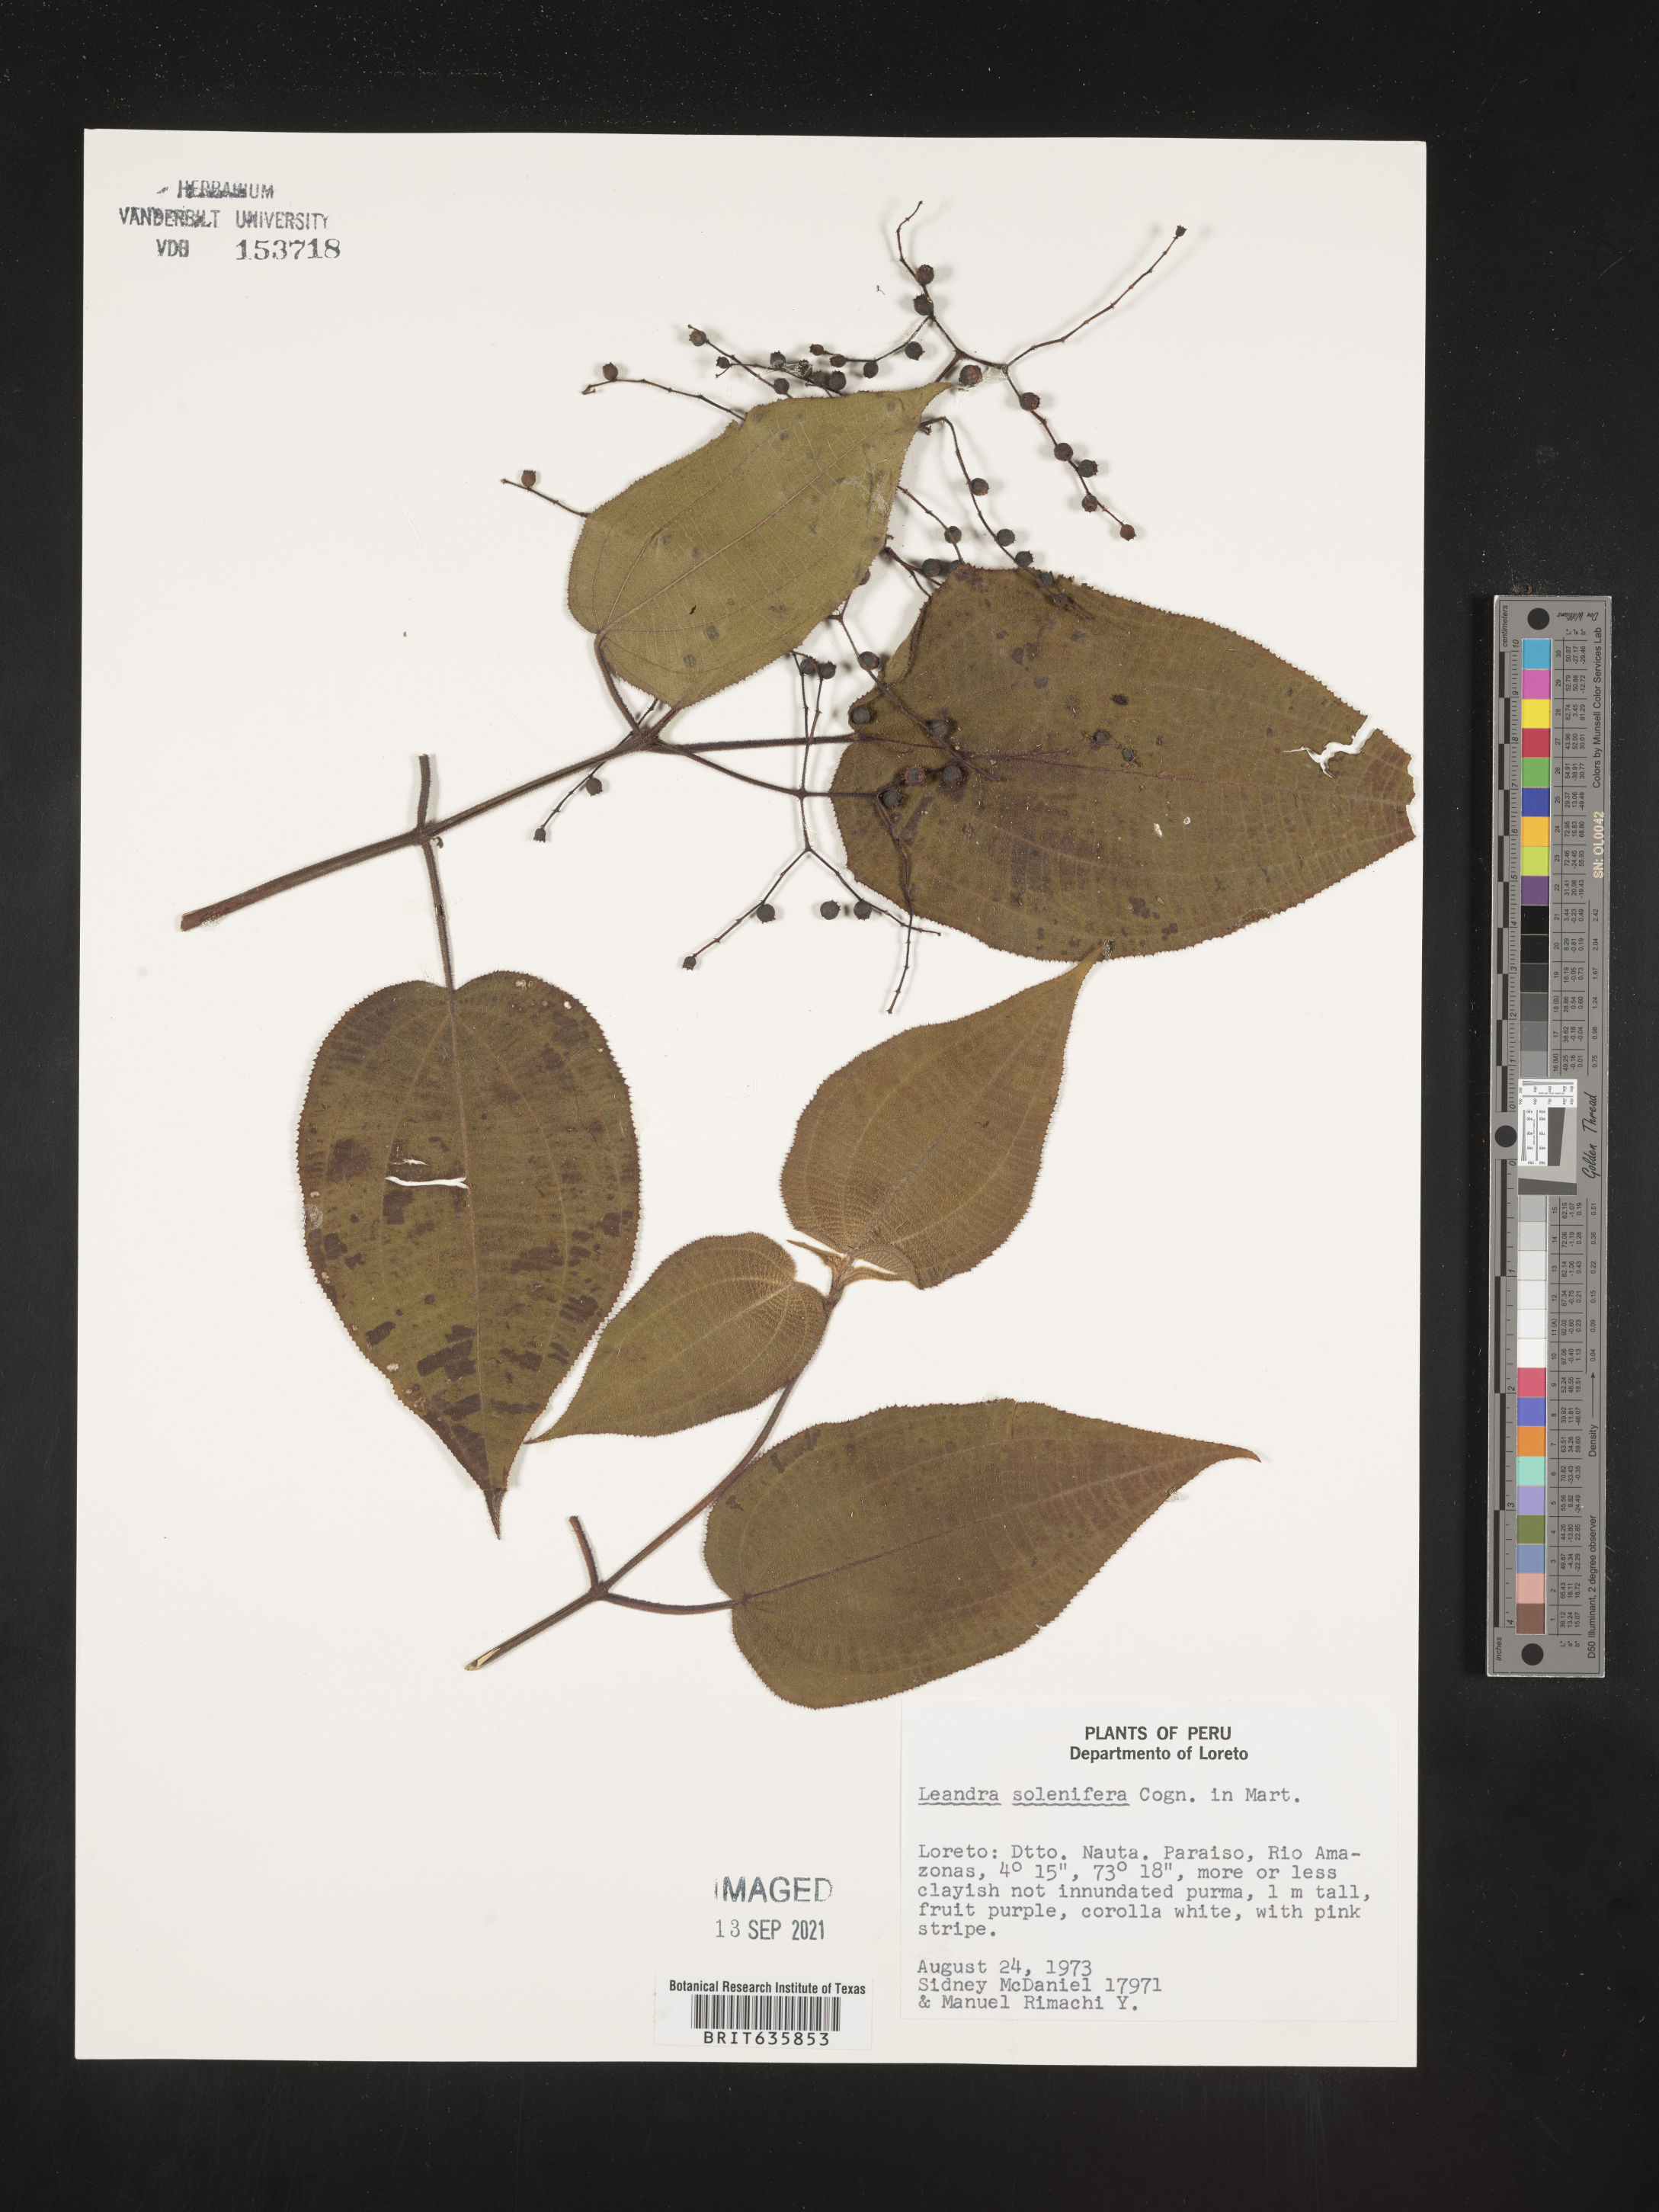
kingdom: Plantae
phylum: Tracheophyta
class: Magnoliopsida
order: Myrtales
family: Melastomataceae
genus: Miconia
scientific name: Miconia
